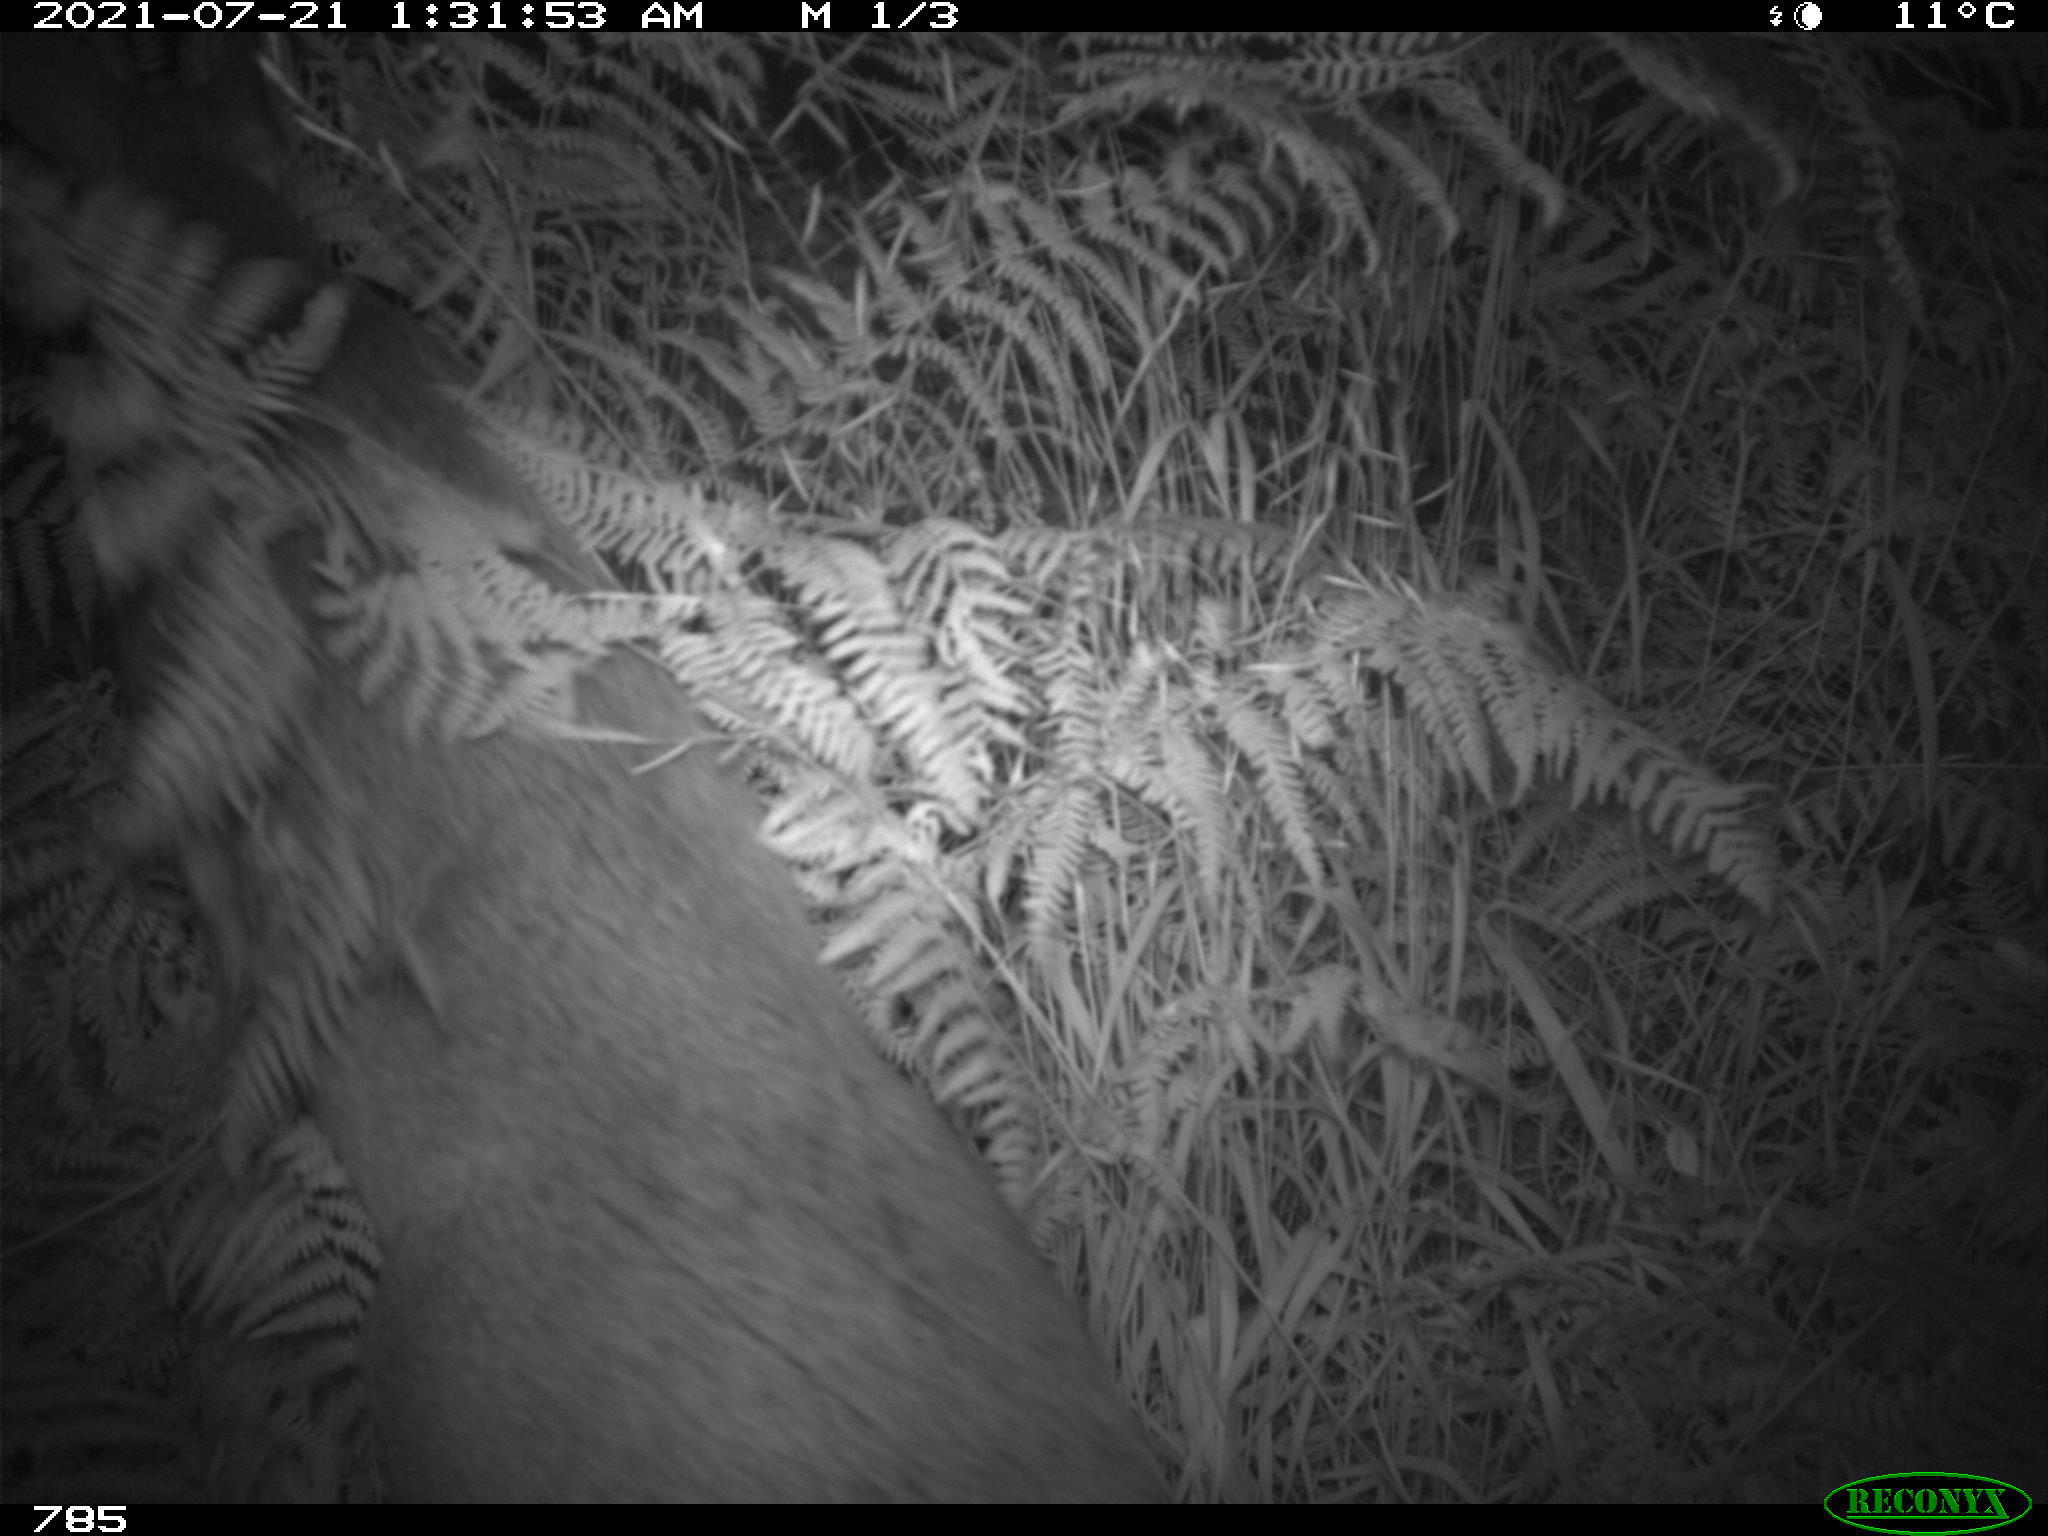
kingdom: Animalia
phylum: Chordata
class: Mammalia
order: Artiodactyla
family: Cervidae
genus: Capreolus
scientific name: Capreolus capreolus
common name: Western roe deer
